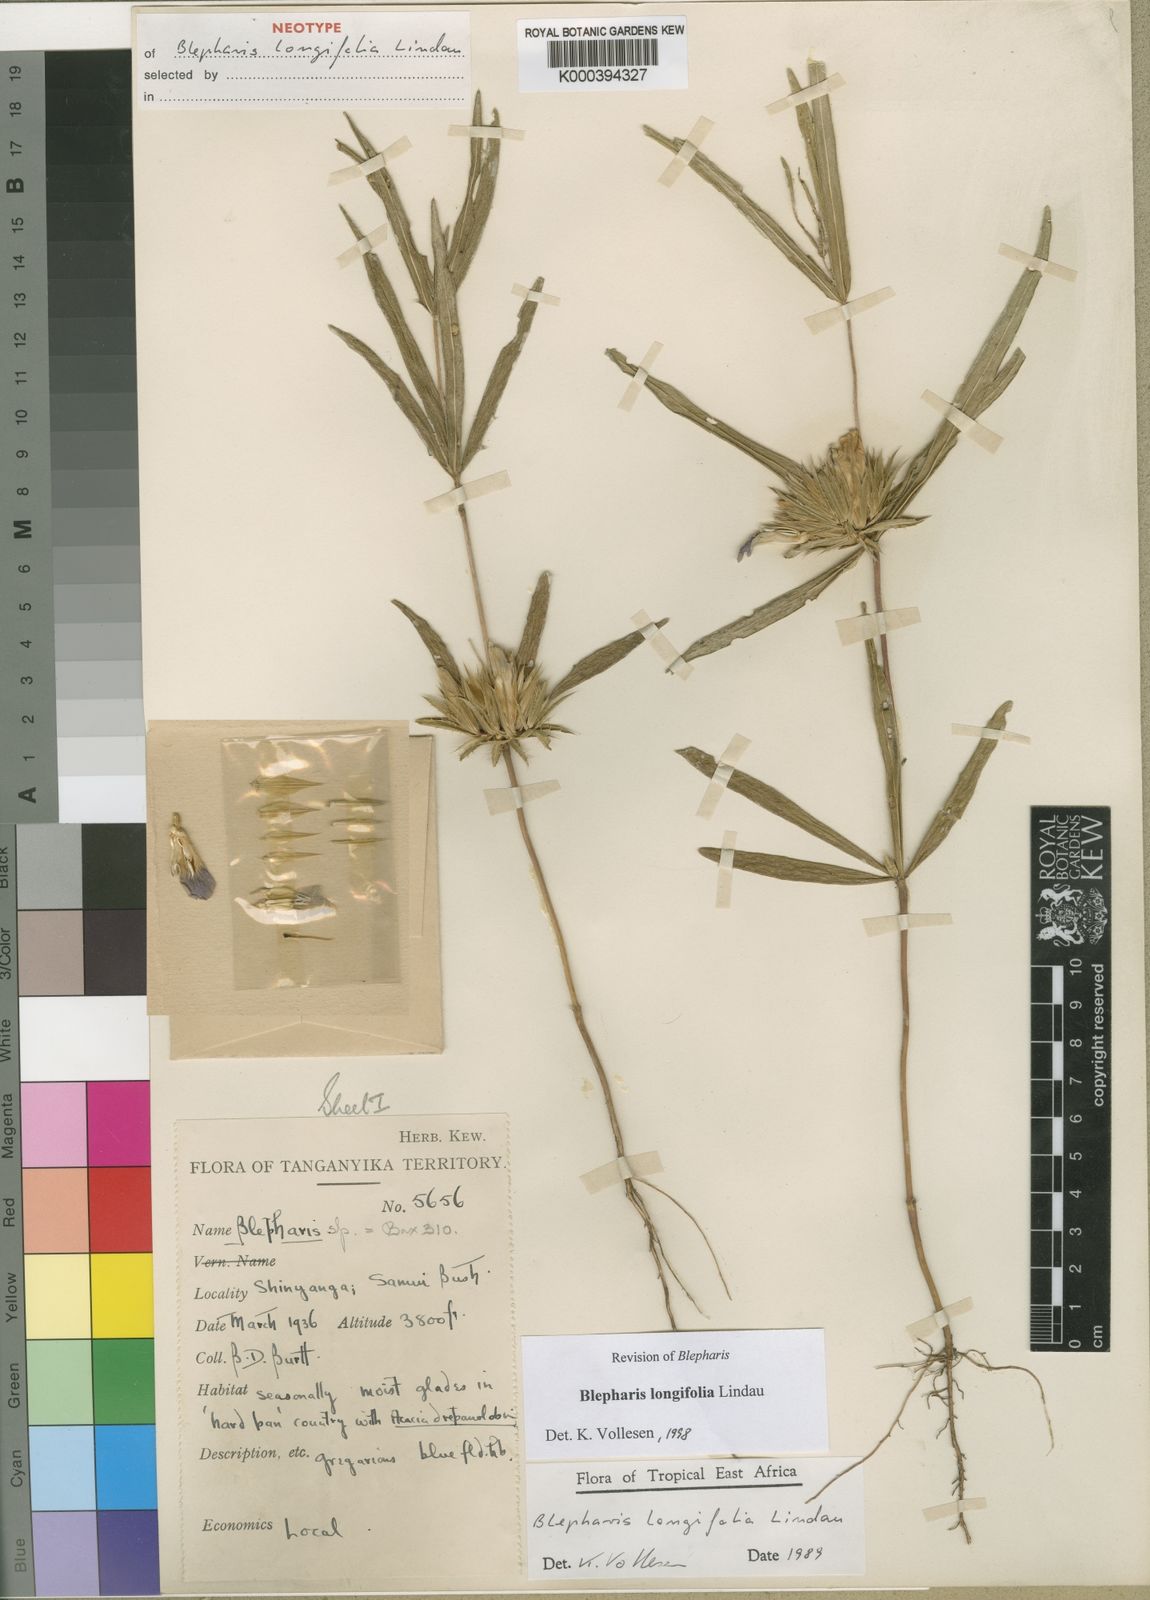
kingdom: Plantae
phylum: Tracheophyta
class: Magnoliopsida
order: Lamiales
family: Acanthaceae
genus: Blepharis
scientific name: Blepharis longifolia
